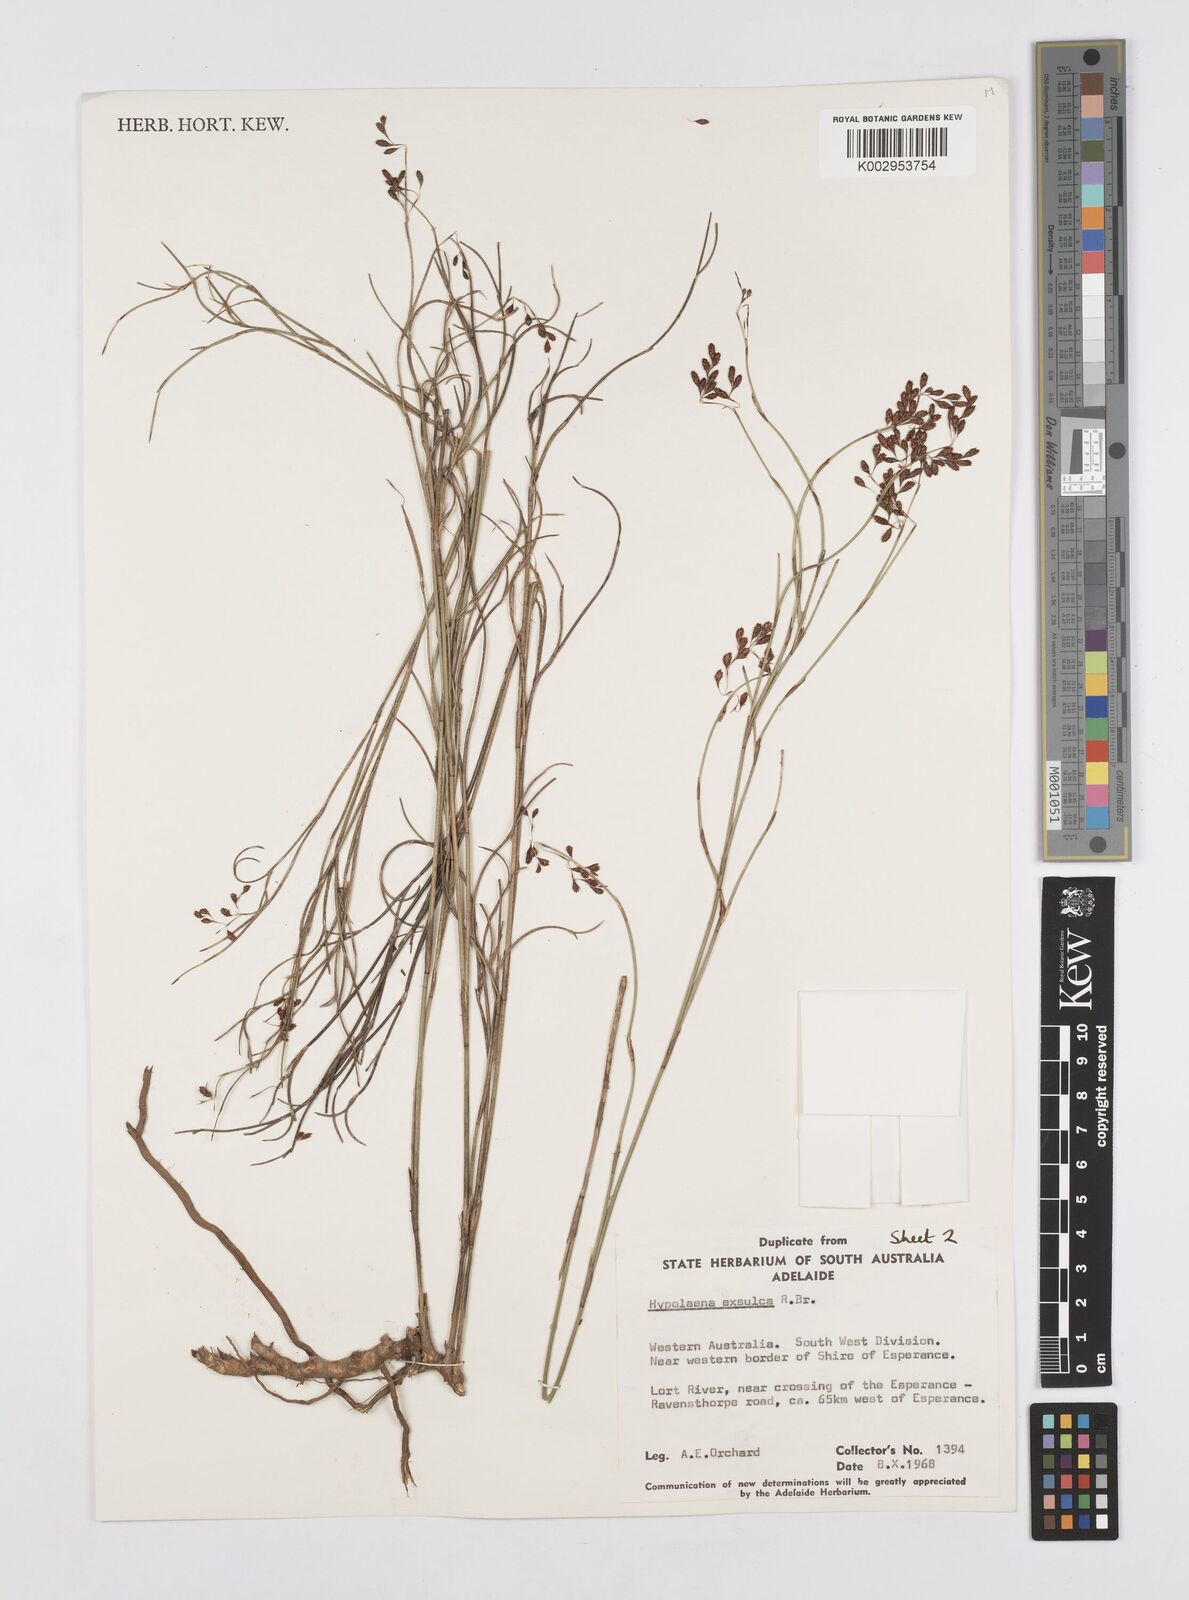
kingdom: Plantae
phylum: Tracheophyta
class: Liliopsida
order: Poales
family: Restionaceae
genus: Hypolaena
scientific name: Hypolaena exsulca
